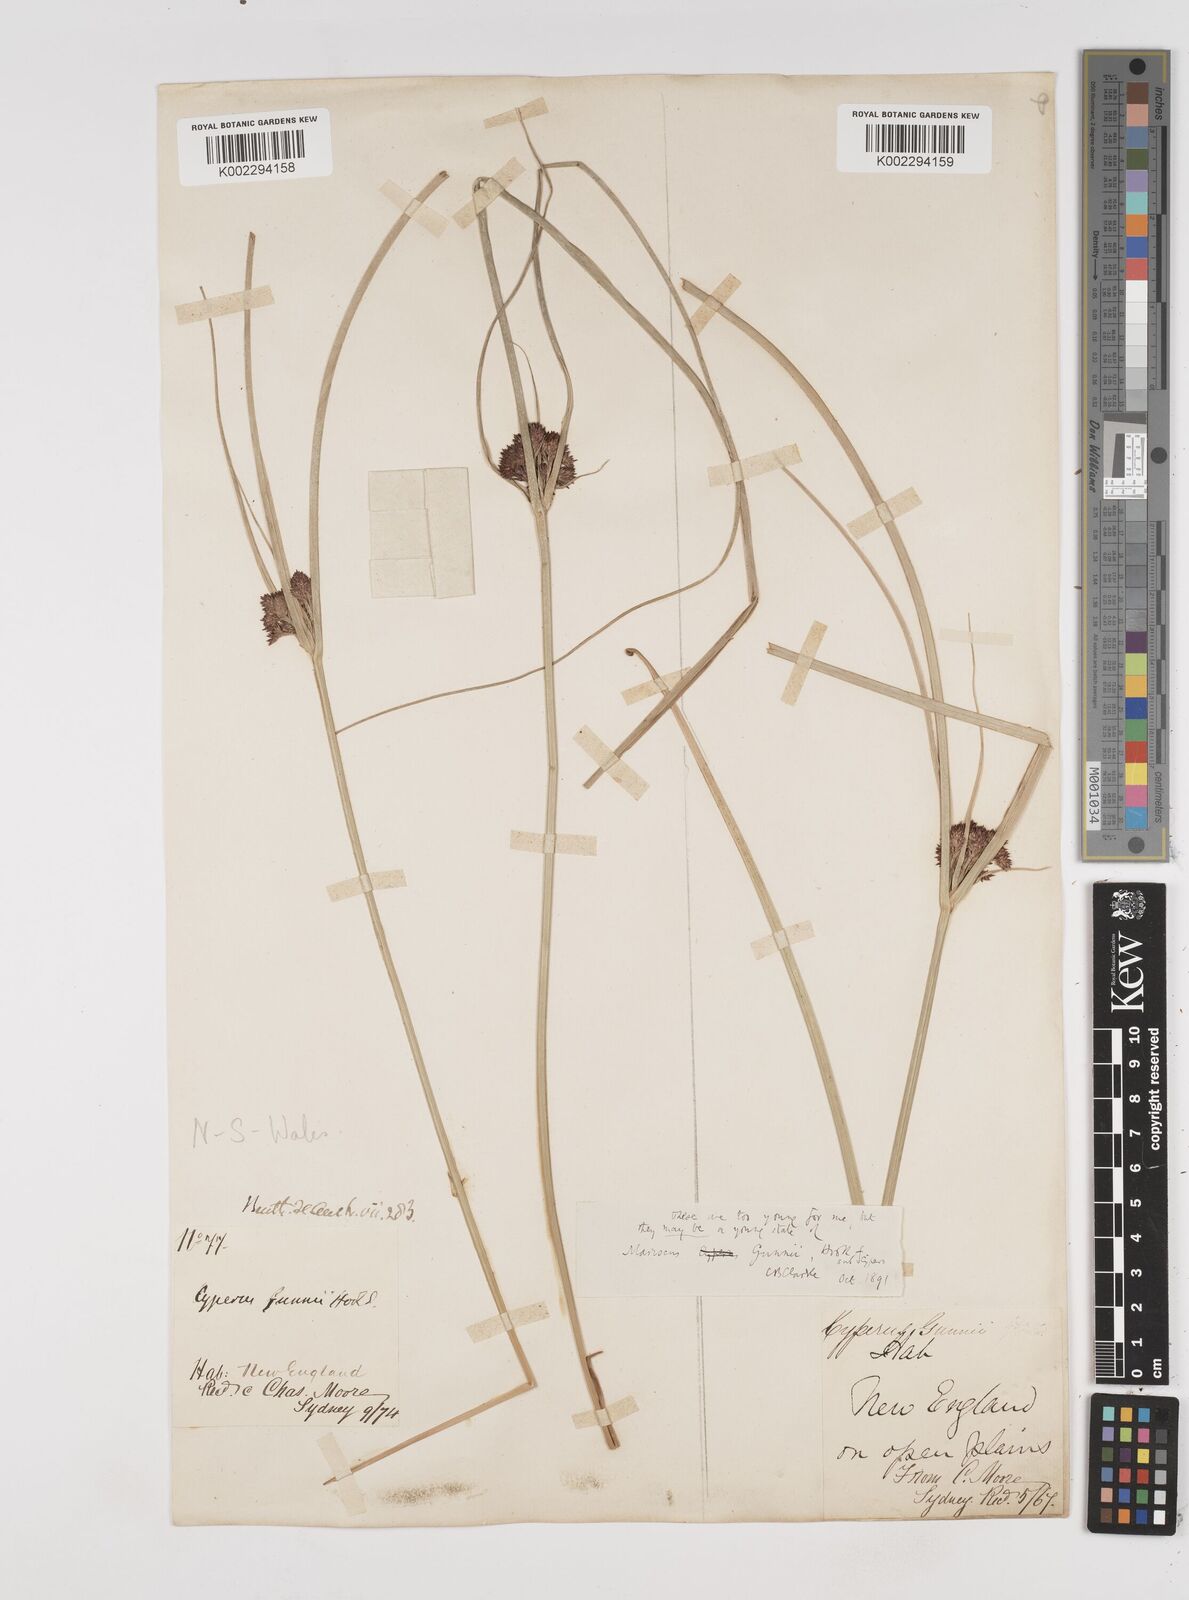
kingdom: Plantae
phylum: Tracheophyta
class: Liliopsida
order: Poales
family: Cyperaceae
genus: Cyperus
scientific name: Cyperus gunnii
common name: Flecked flat-sedge
